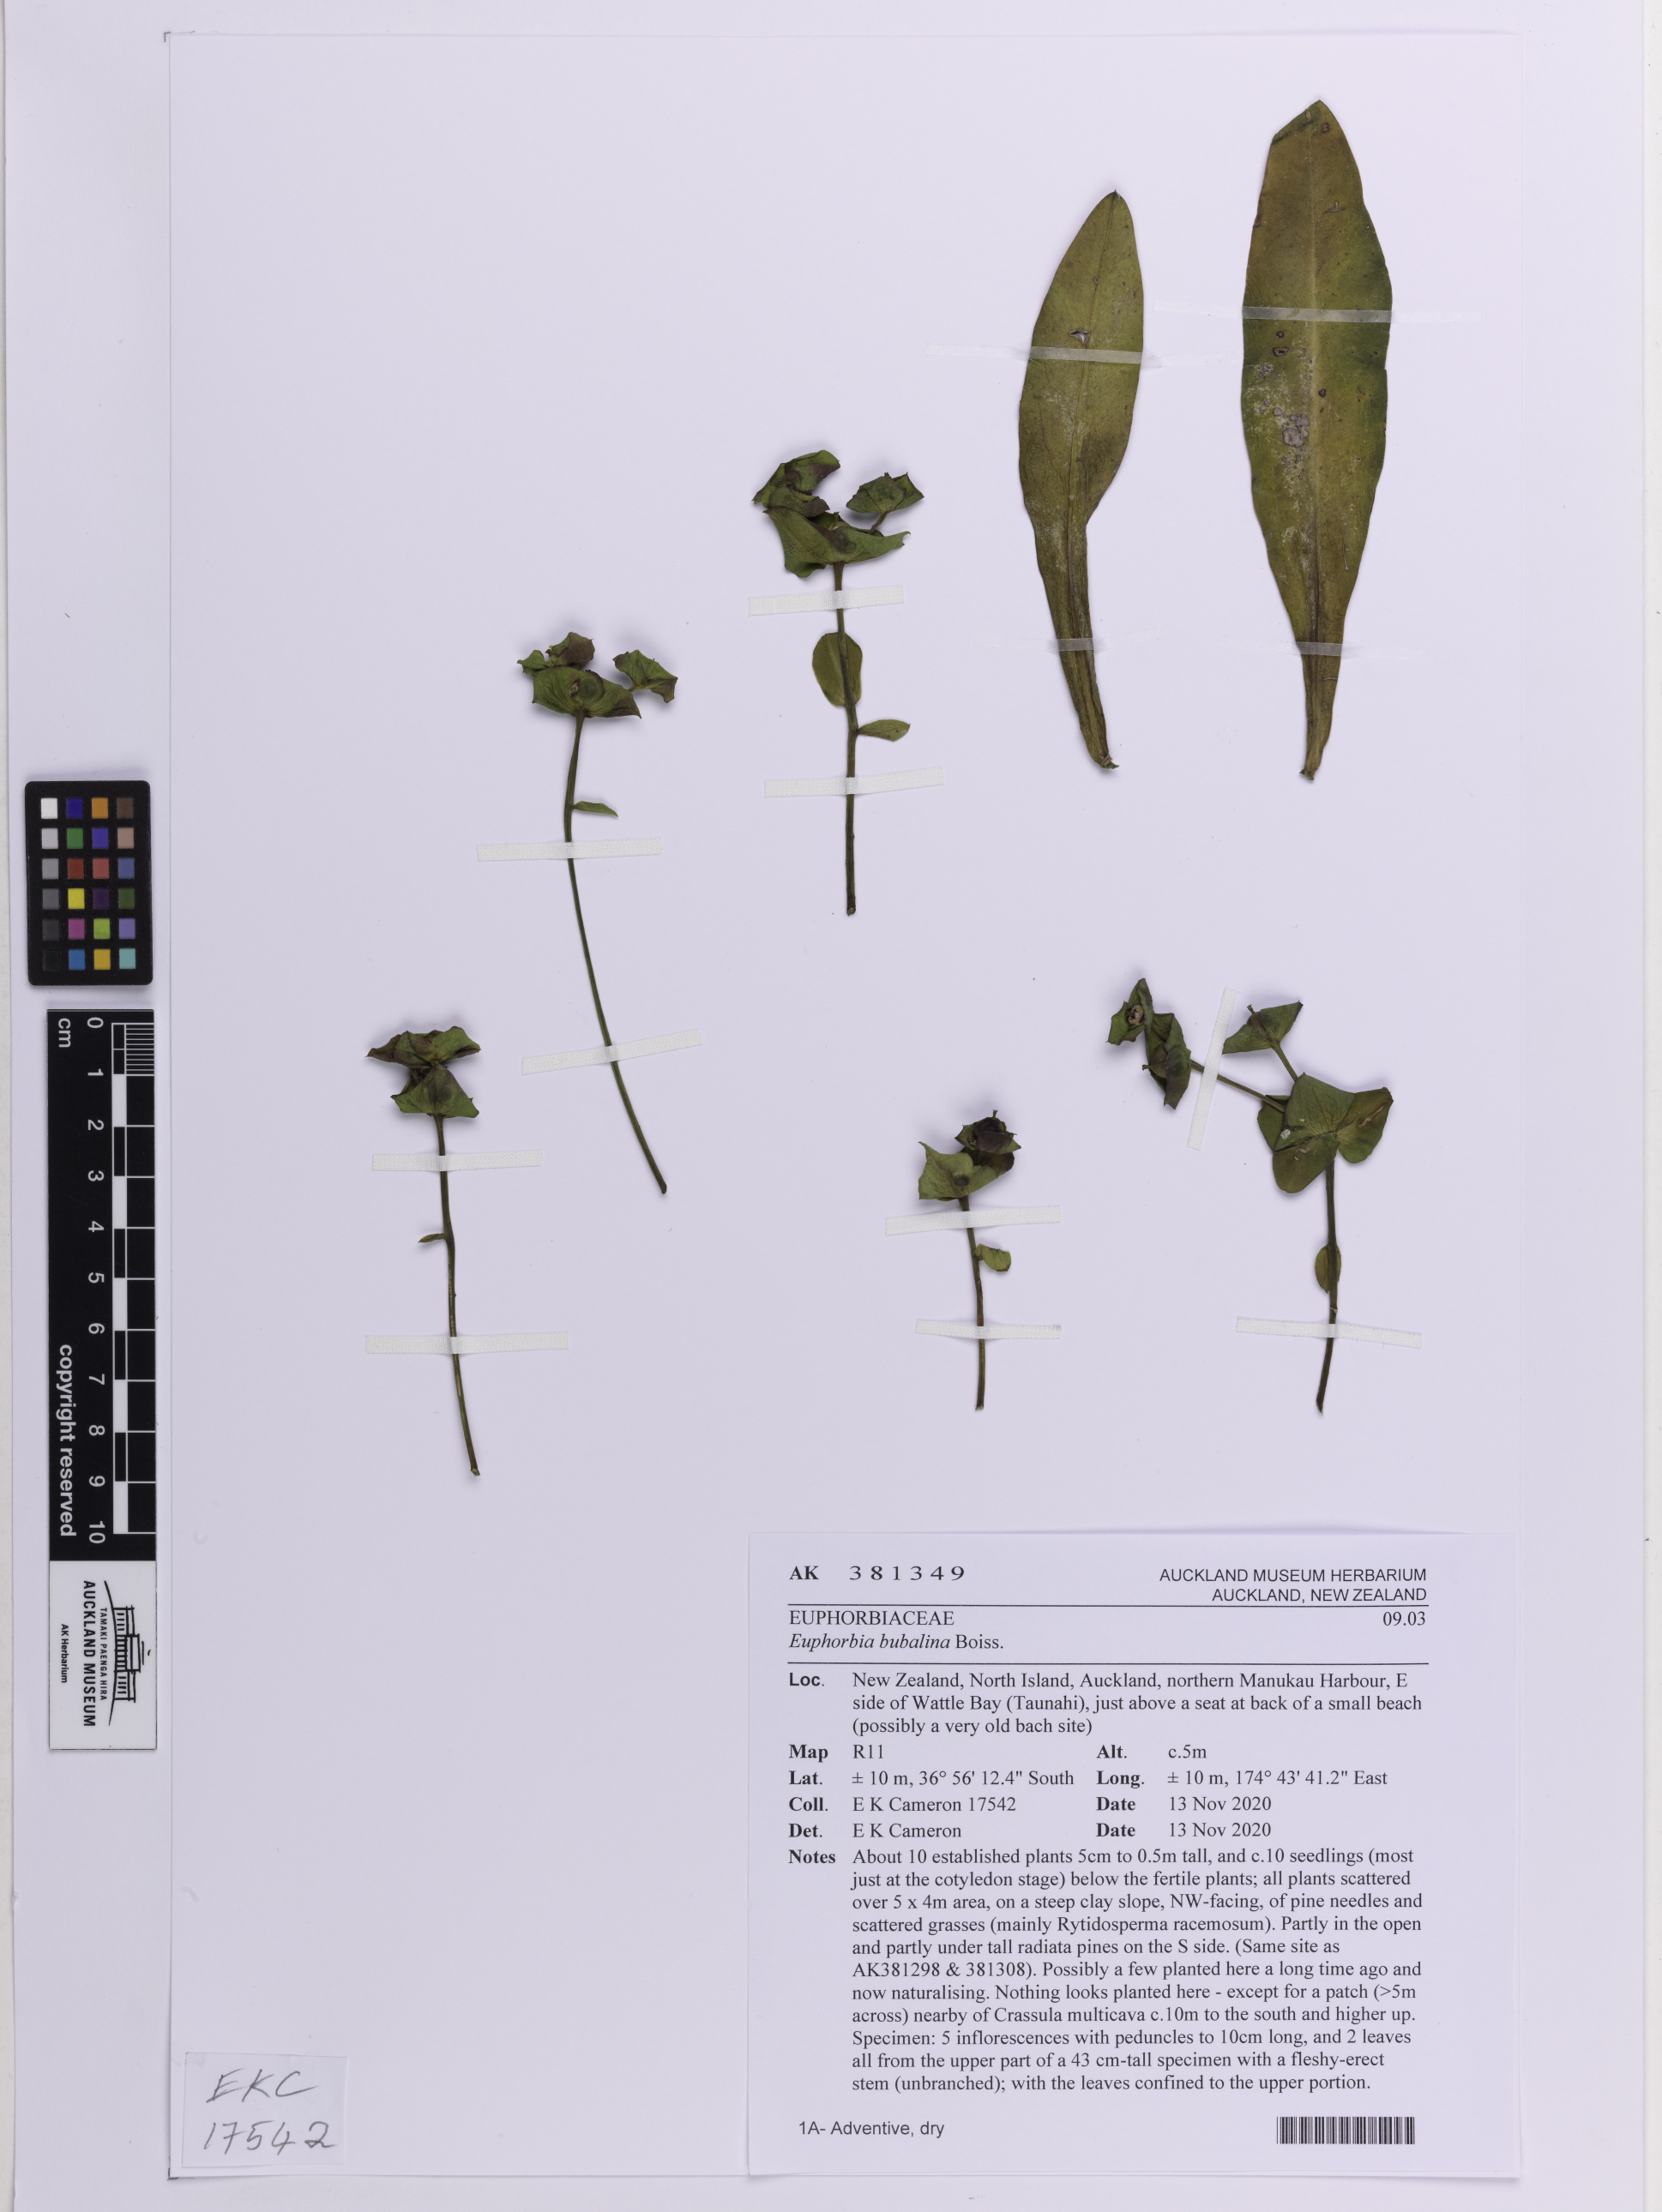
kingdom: Plantae
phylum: Tracheophyta
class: Magnoliopsida
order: Malpighiales
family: Euphorbiaceae
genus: Euphorbia
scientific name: Euphorbia bubalina
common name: Buffalo euphorbia
